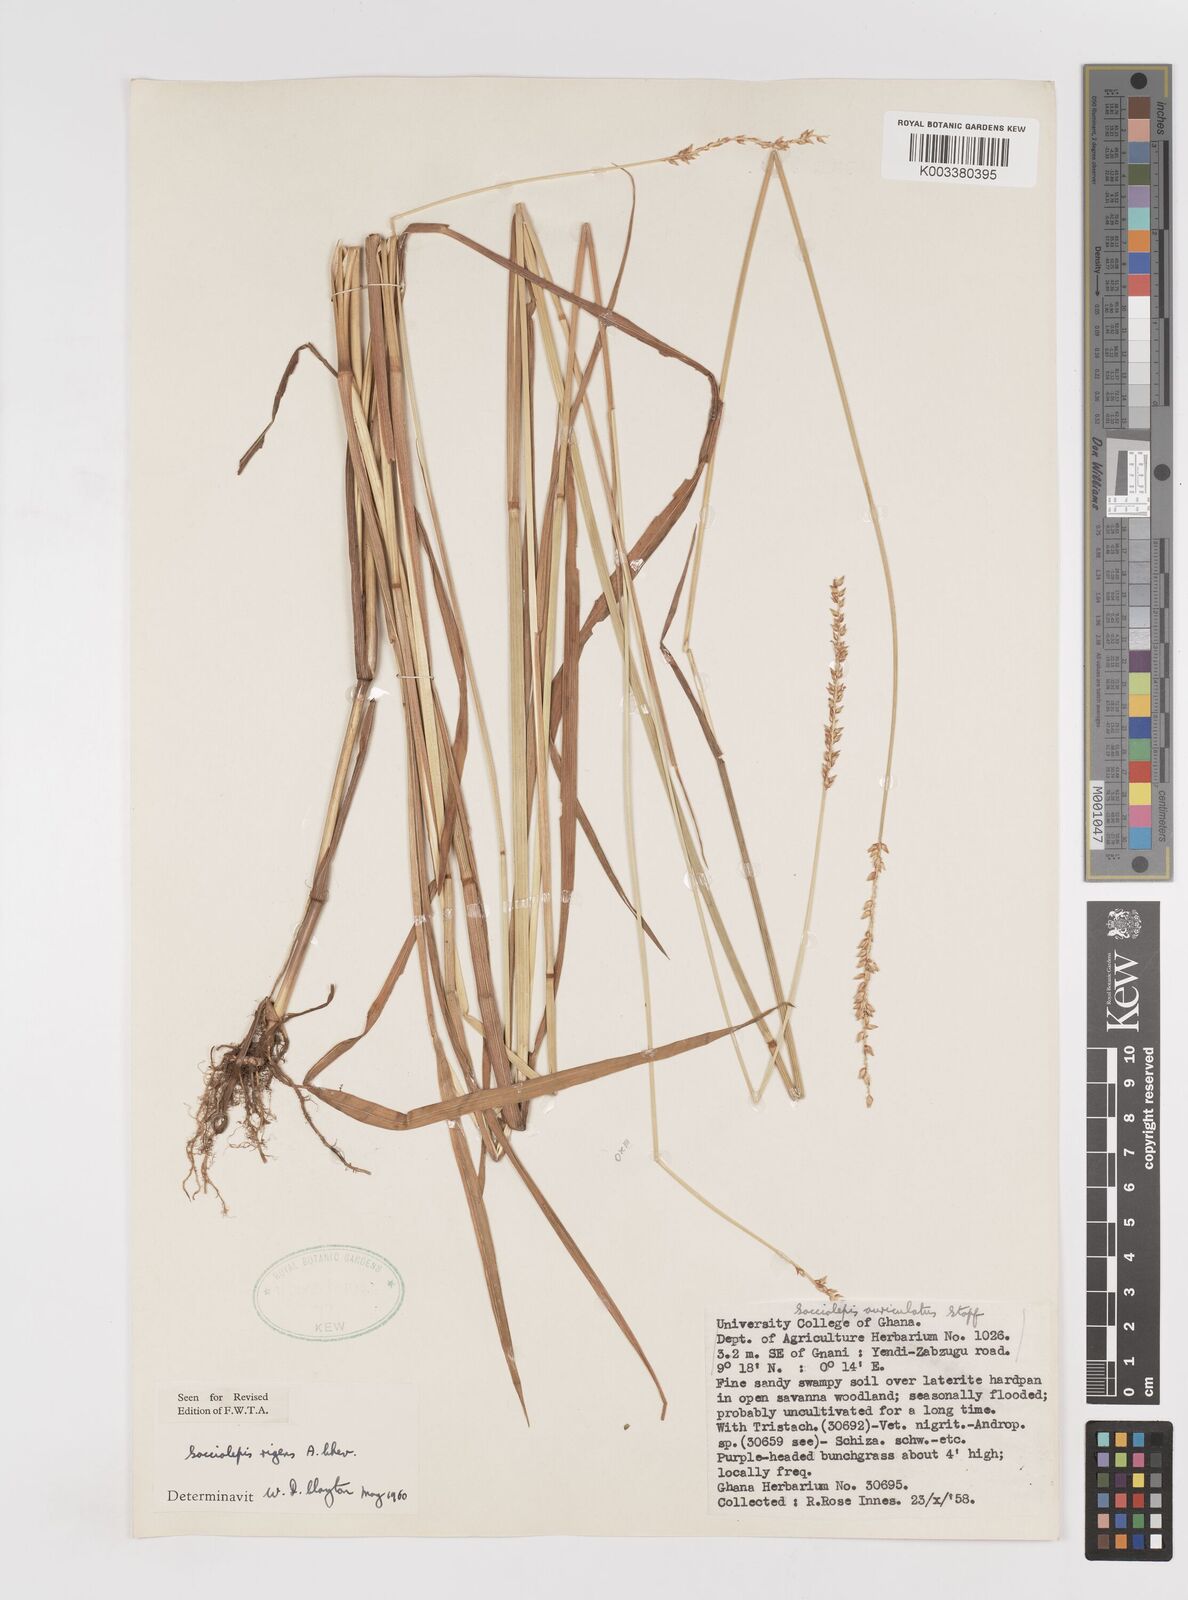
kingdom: Plantae
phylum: Tracheophyta
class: Liliopsida
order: Poales
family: Poaceae
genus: Sacciolepis
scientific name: Sacciolepis leptorrhachis
